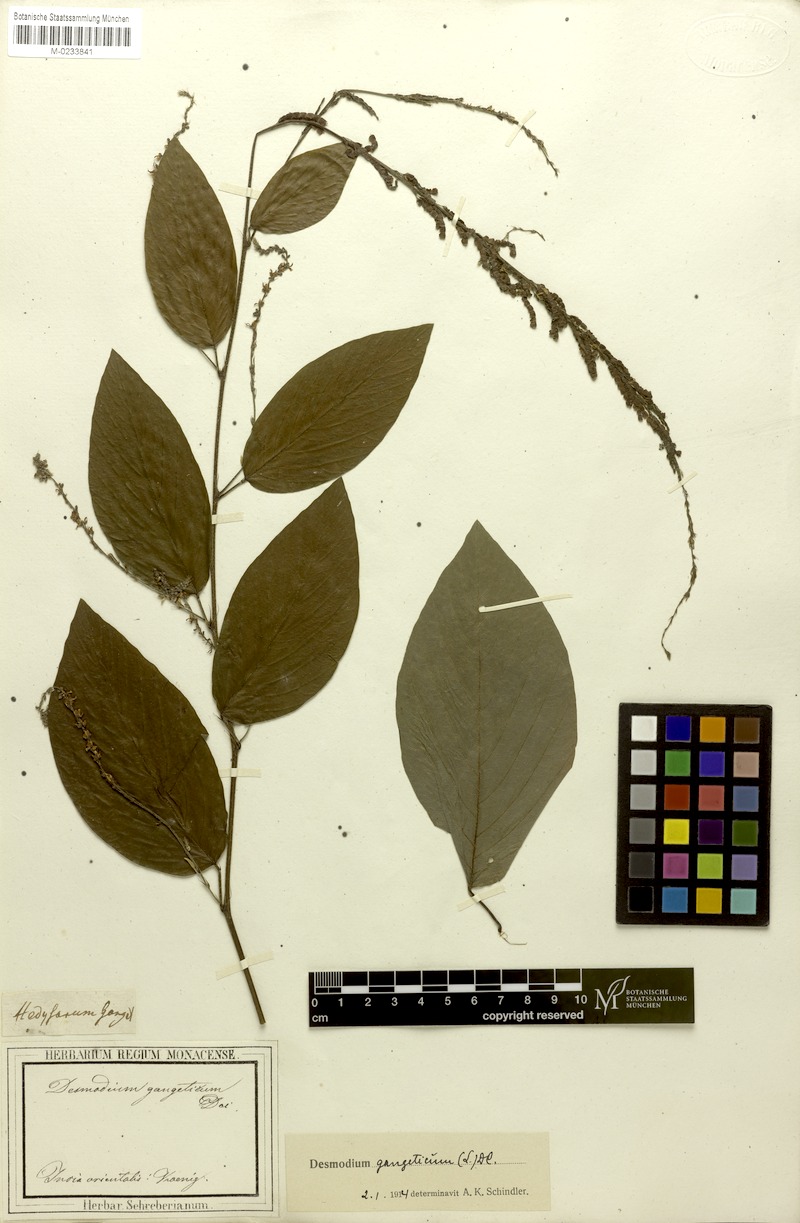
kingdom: Plantae
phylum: Tracheophyta
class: Magnoliopsida
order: Fabales
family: Fabaceae
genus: Pleurolobus
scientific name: Pleurolobus gangeticus
